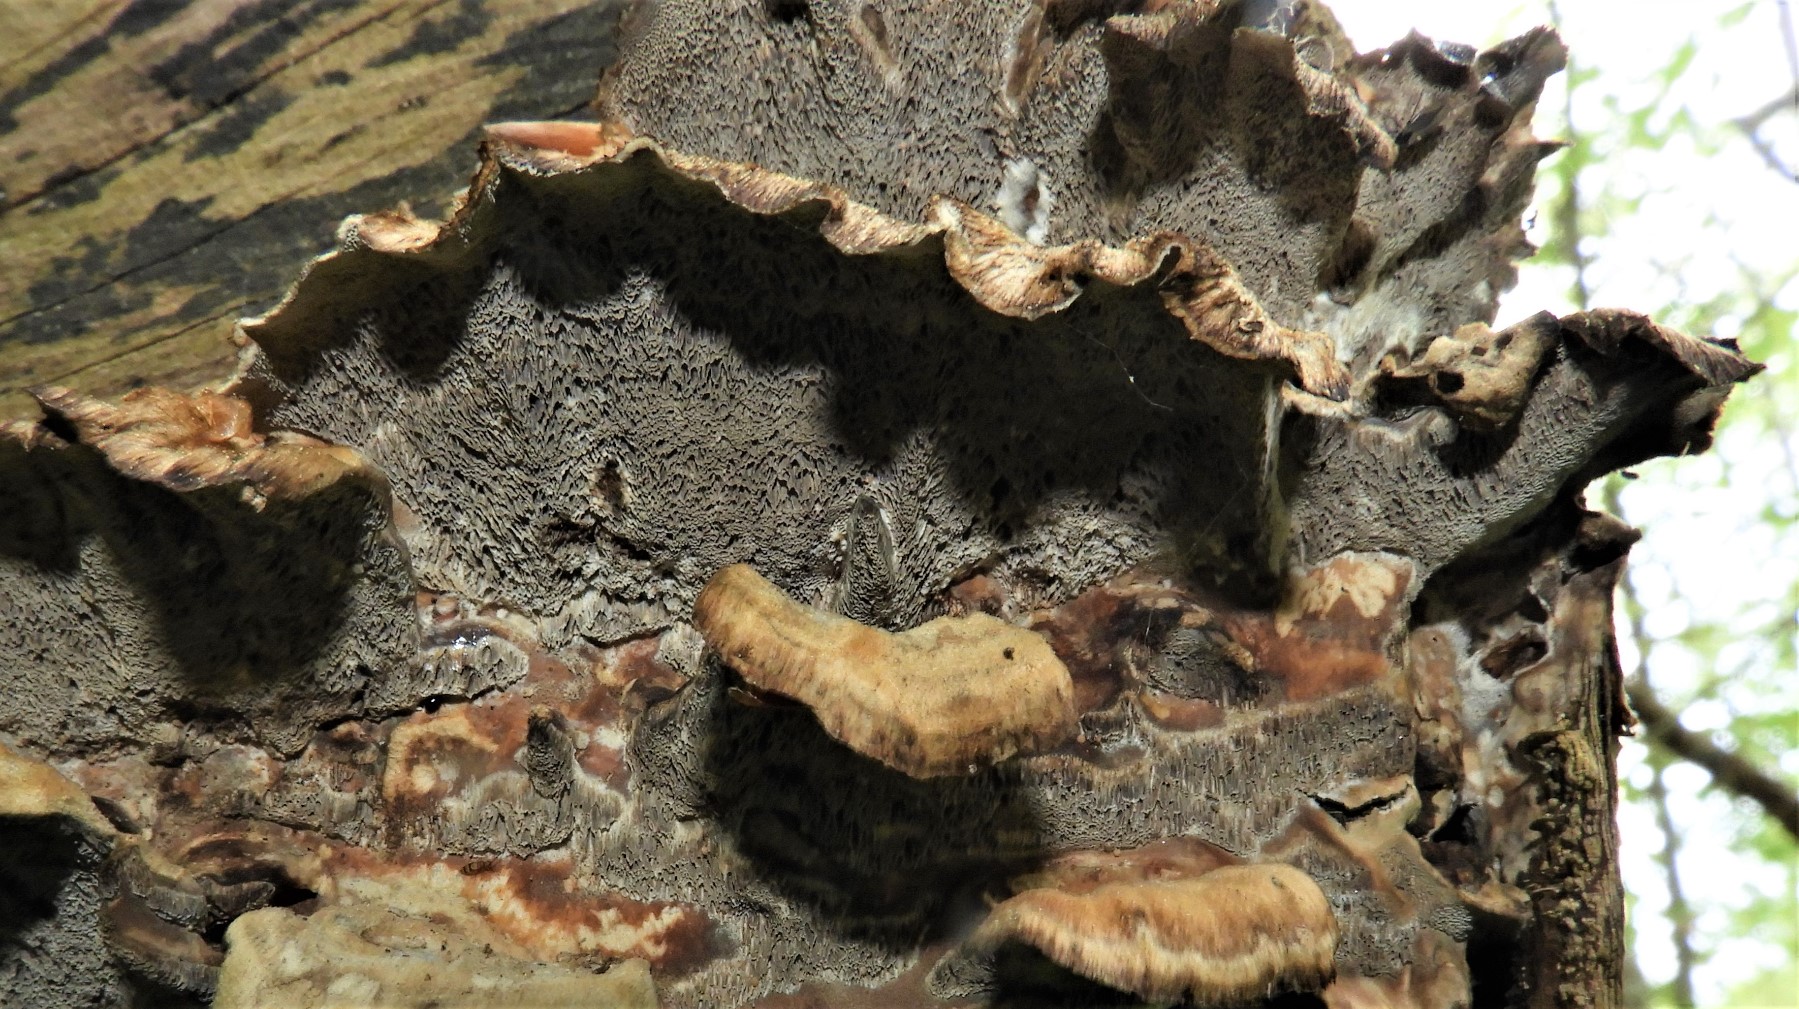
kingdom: Fungi
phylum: Basidiomycota
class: Agaricomycetes
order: Polyporales
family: Phanerochaetaceae
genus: Bjerkandera
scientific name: Bjerkandera adusta
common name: sveden sodporesvamp
